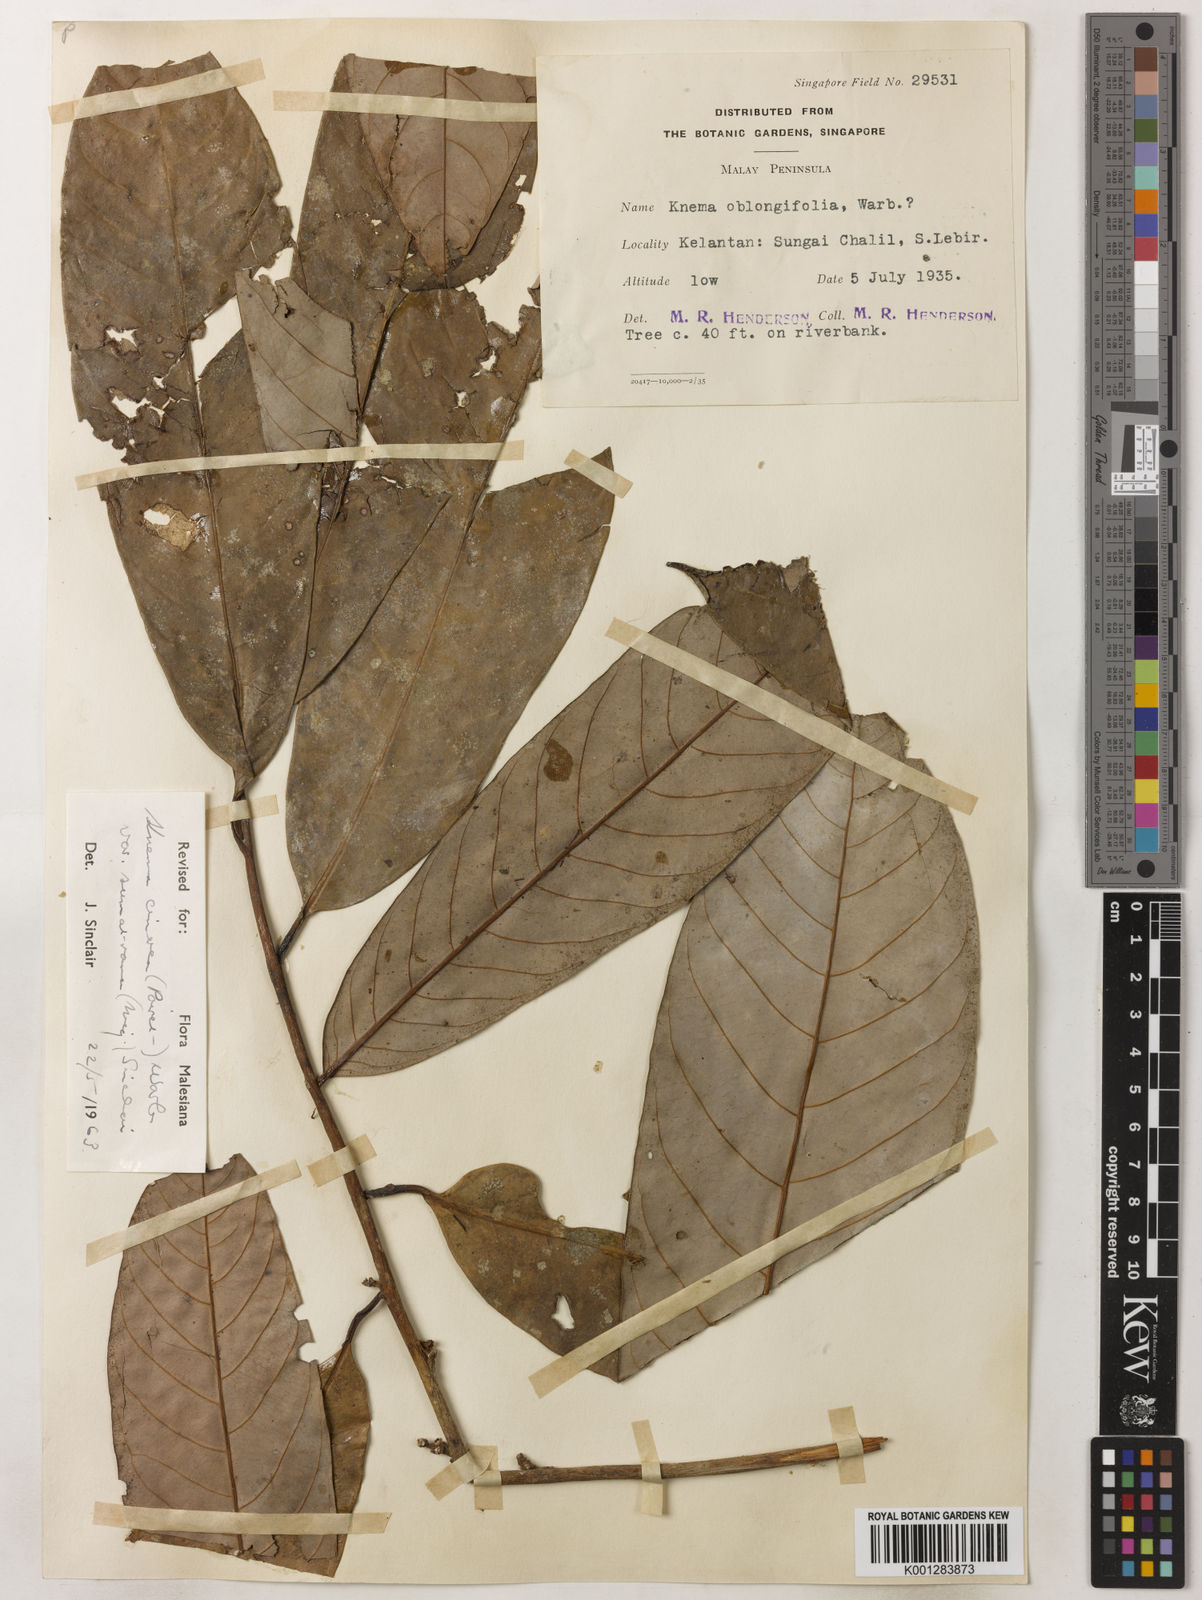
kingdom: Plantae
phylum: Tracheophyta
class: Magnoliopsida
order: Magnoliales
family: Myristicaceae
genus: Knema
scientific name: Knema
